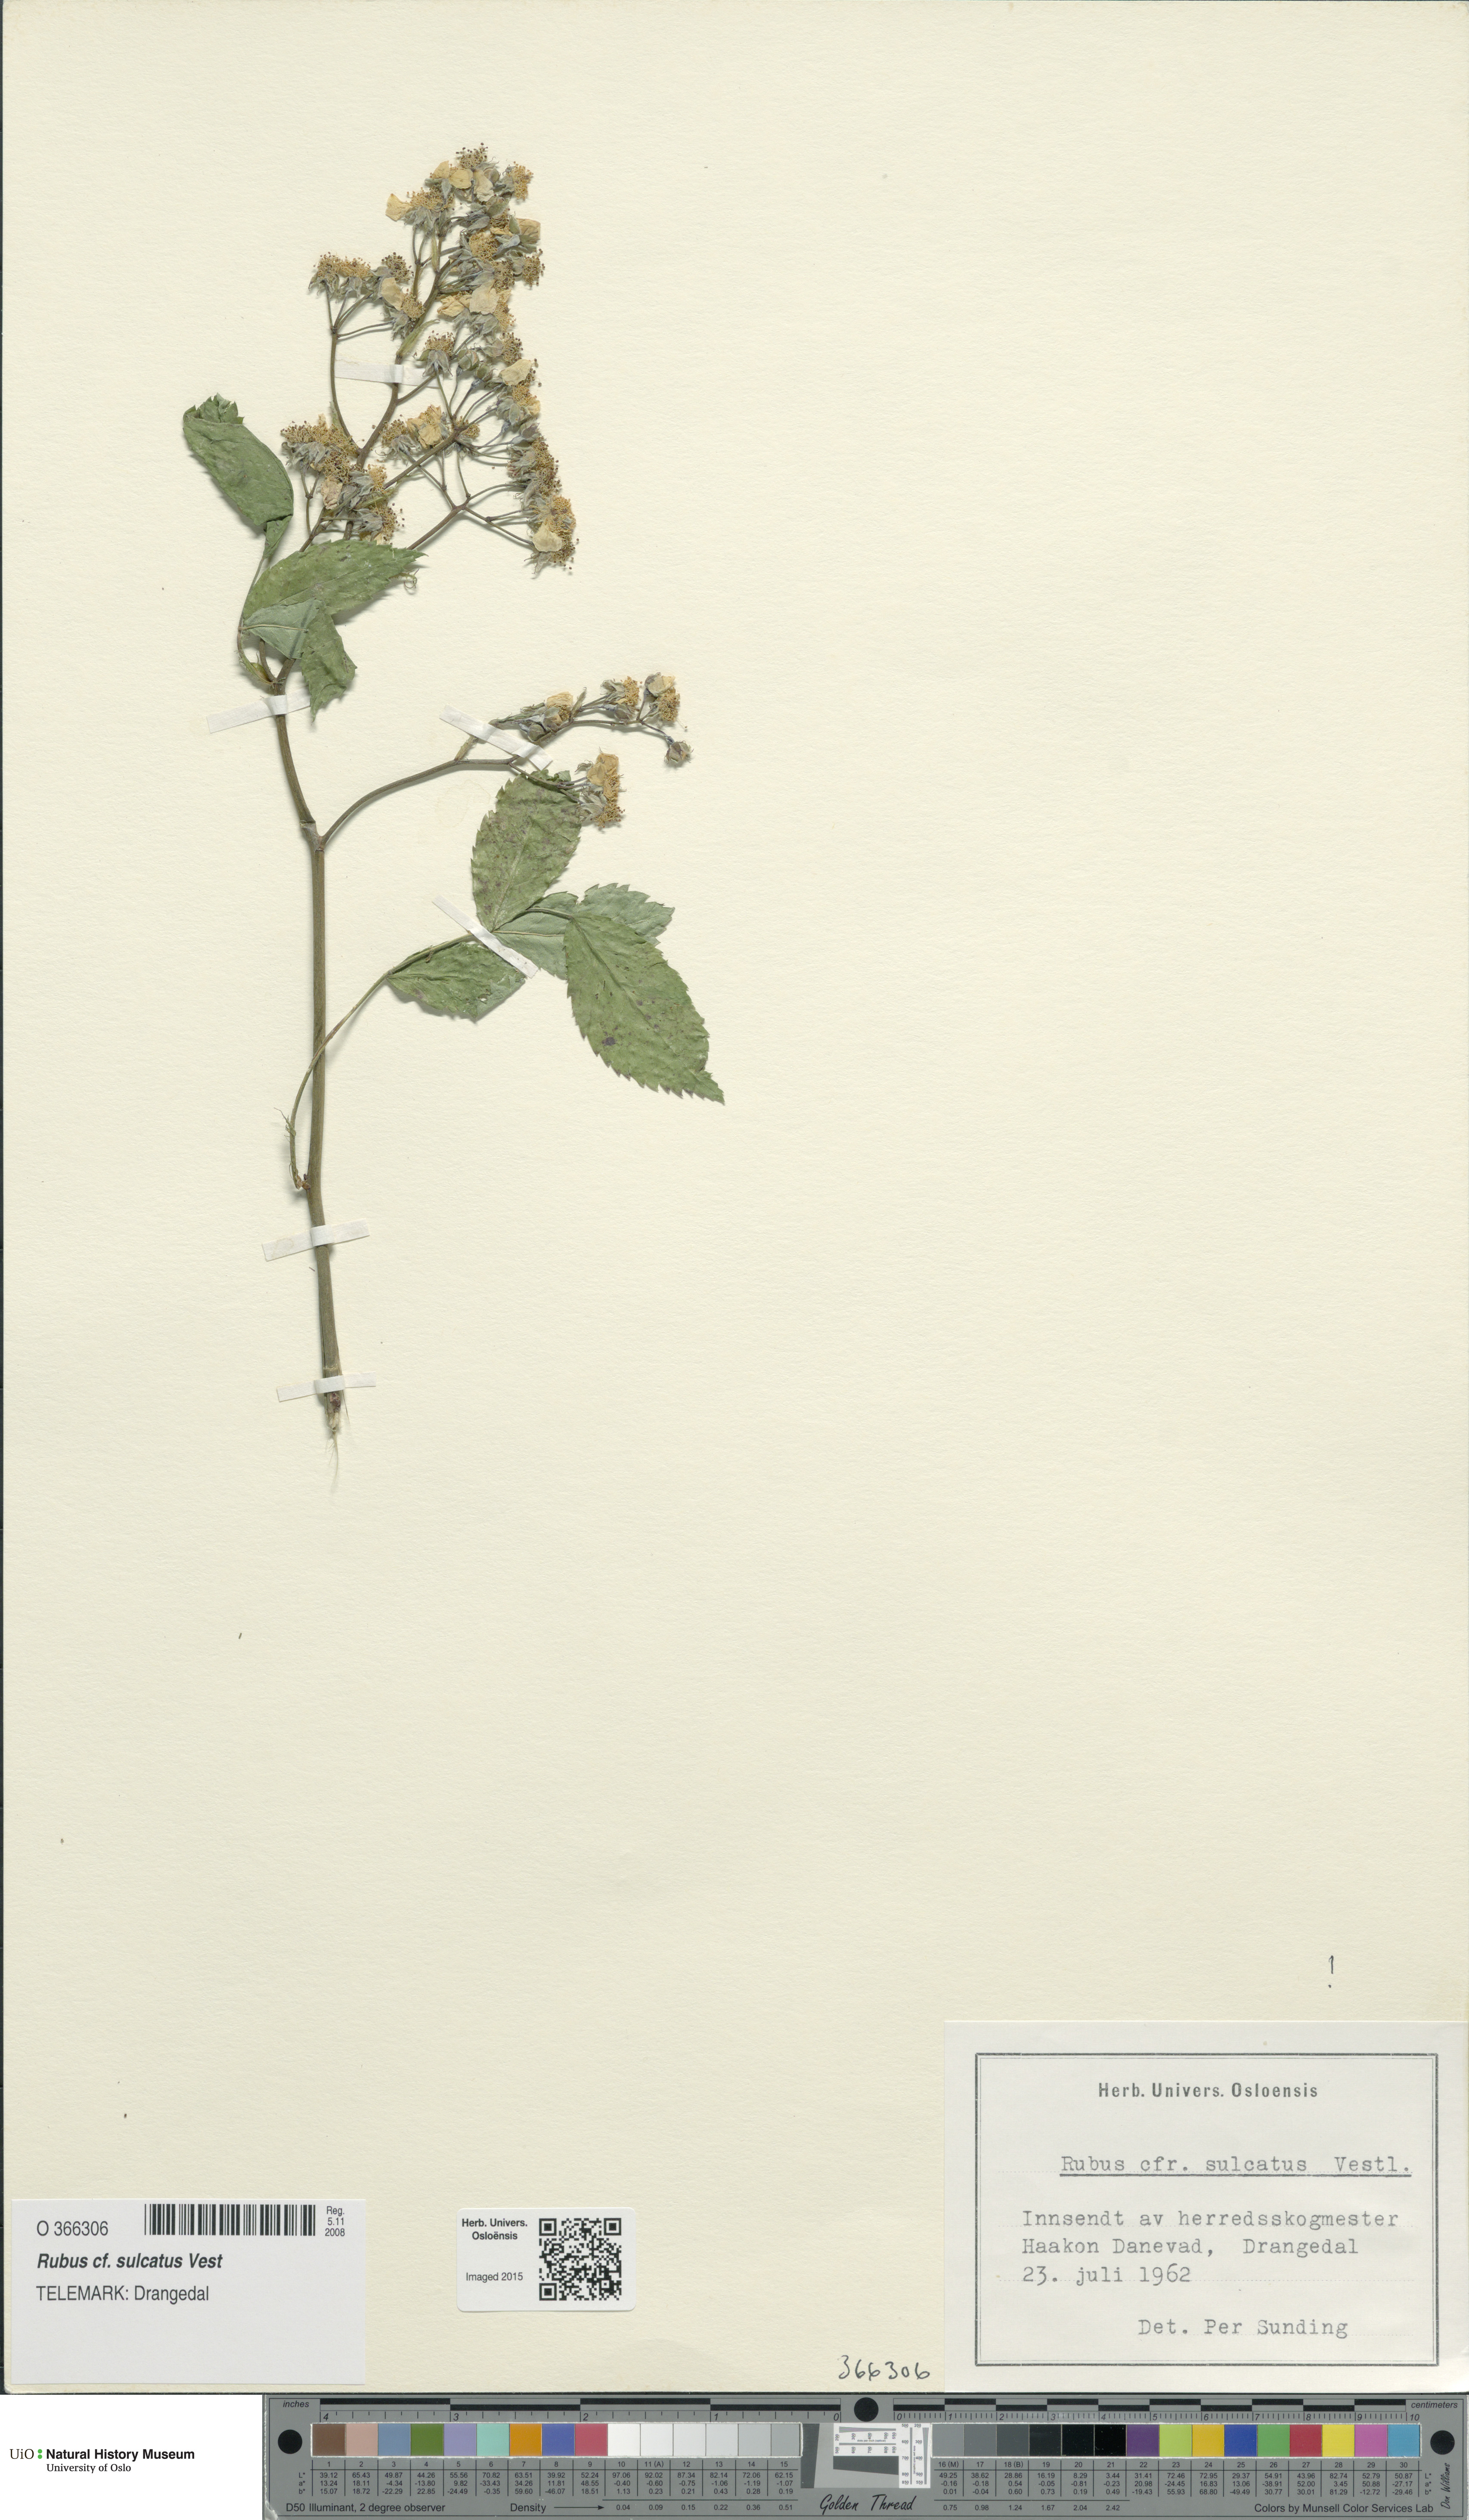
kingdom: Plantae
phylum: Tracheophyta
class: Magnoliopsida
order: Rosales
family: Rosaceae
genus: Rubus
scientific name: Rubus sulcatus
